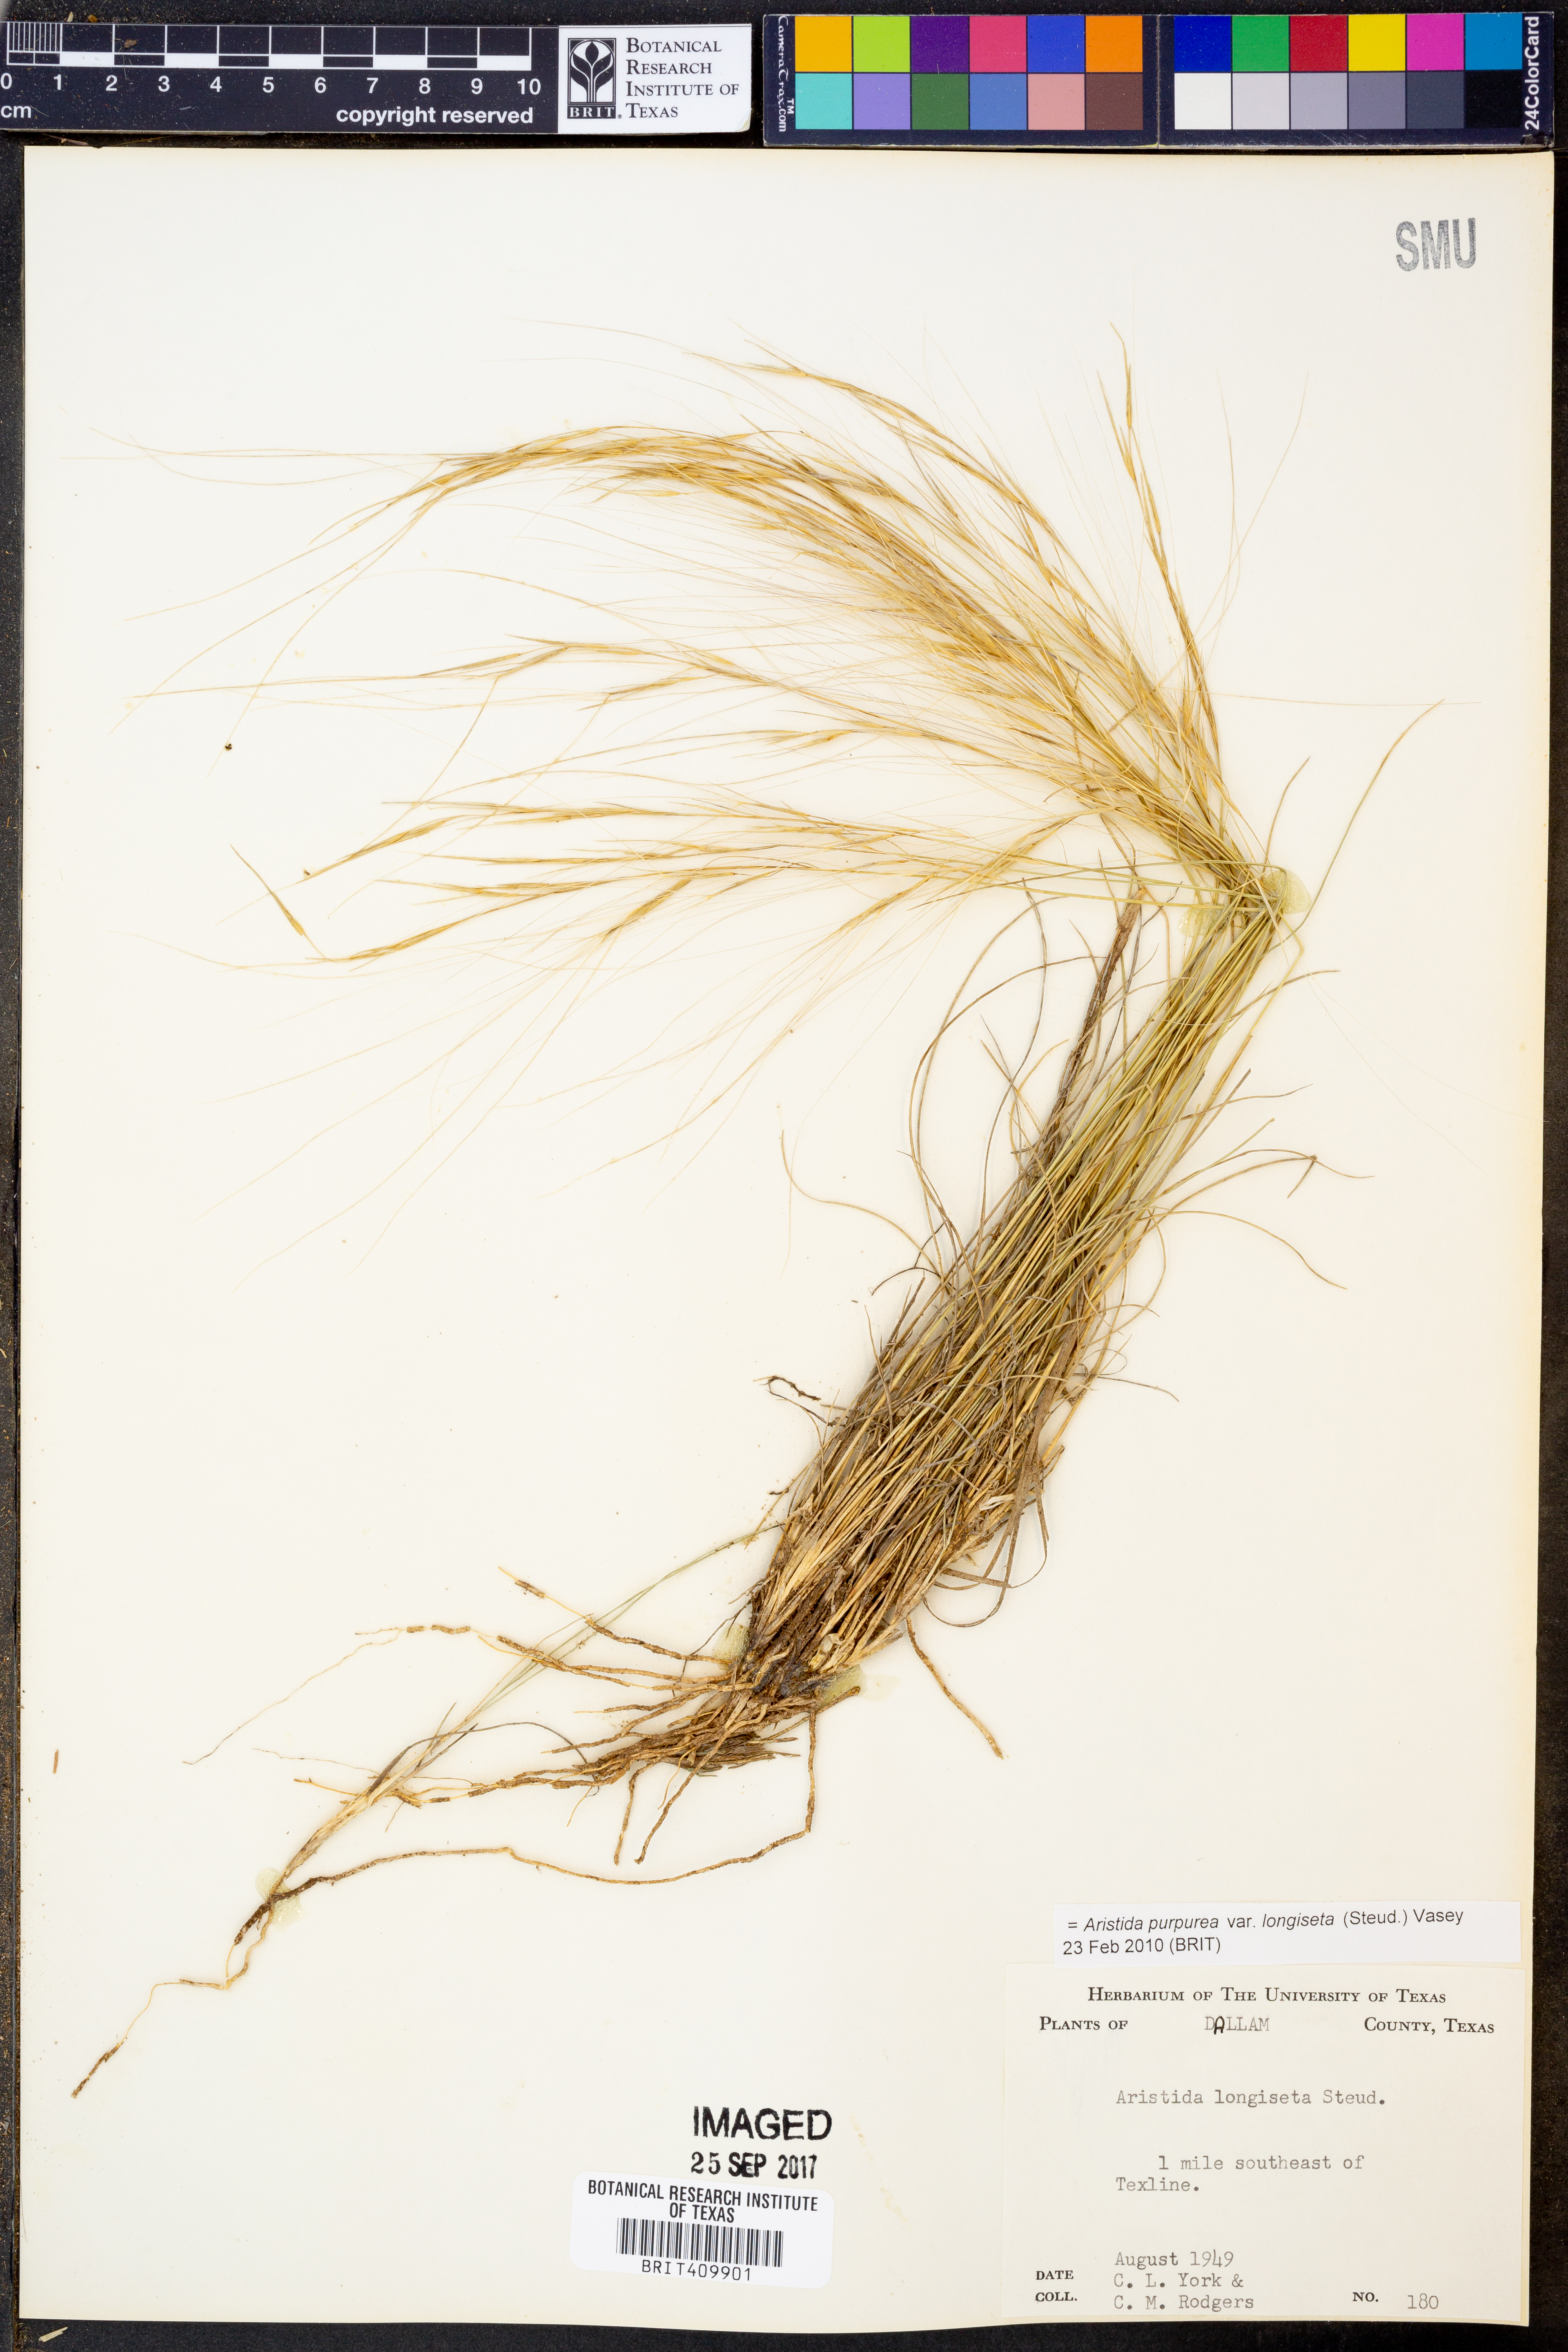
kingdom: Plantae
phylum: Tracheophyta
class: Liliopsida
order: Poales
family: Poaceae
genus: Aristida
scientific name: Aristida longiseta
